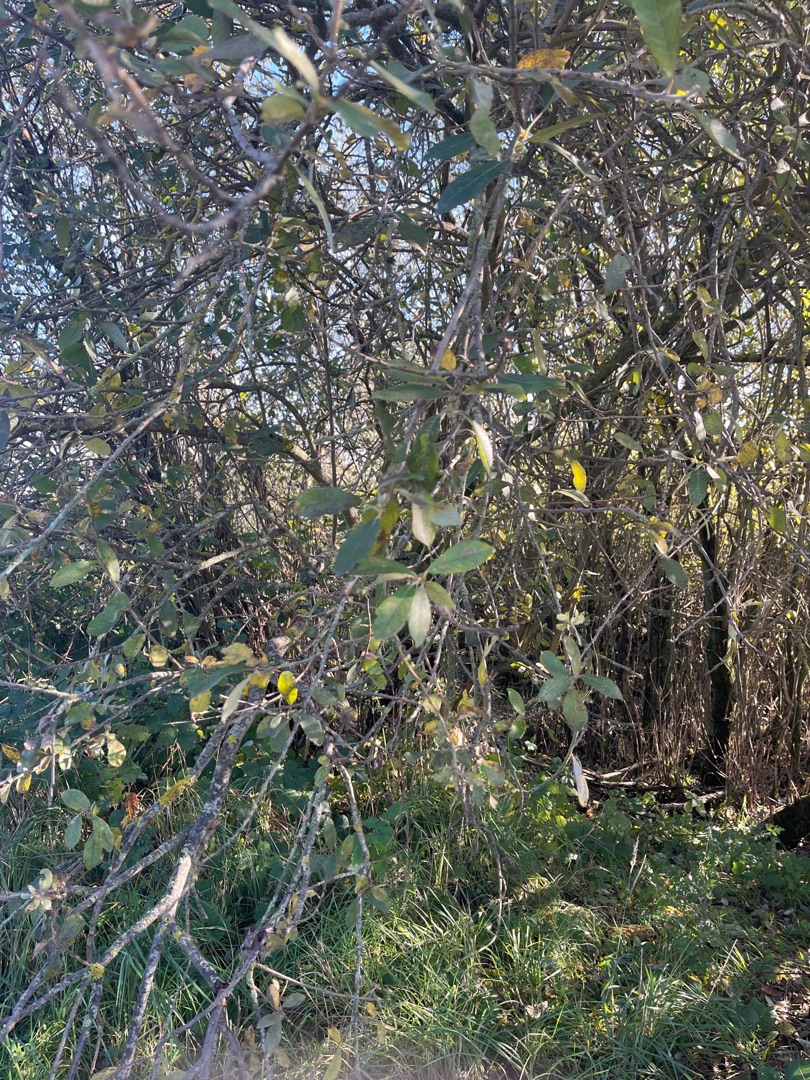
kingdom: Plantae
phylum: Tracheophyta
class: Magnoliopsida
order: Malpighiales
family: Salicaceae
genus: Salix
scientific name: Salix cinerea
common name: Grå-pil
